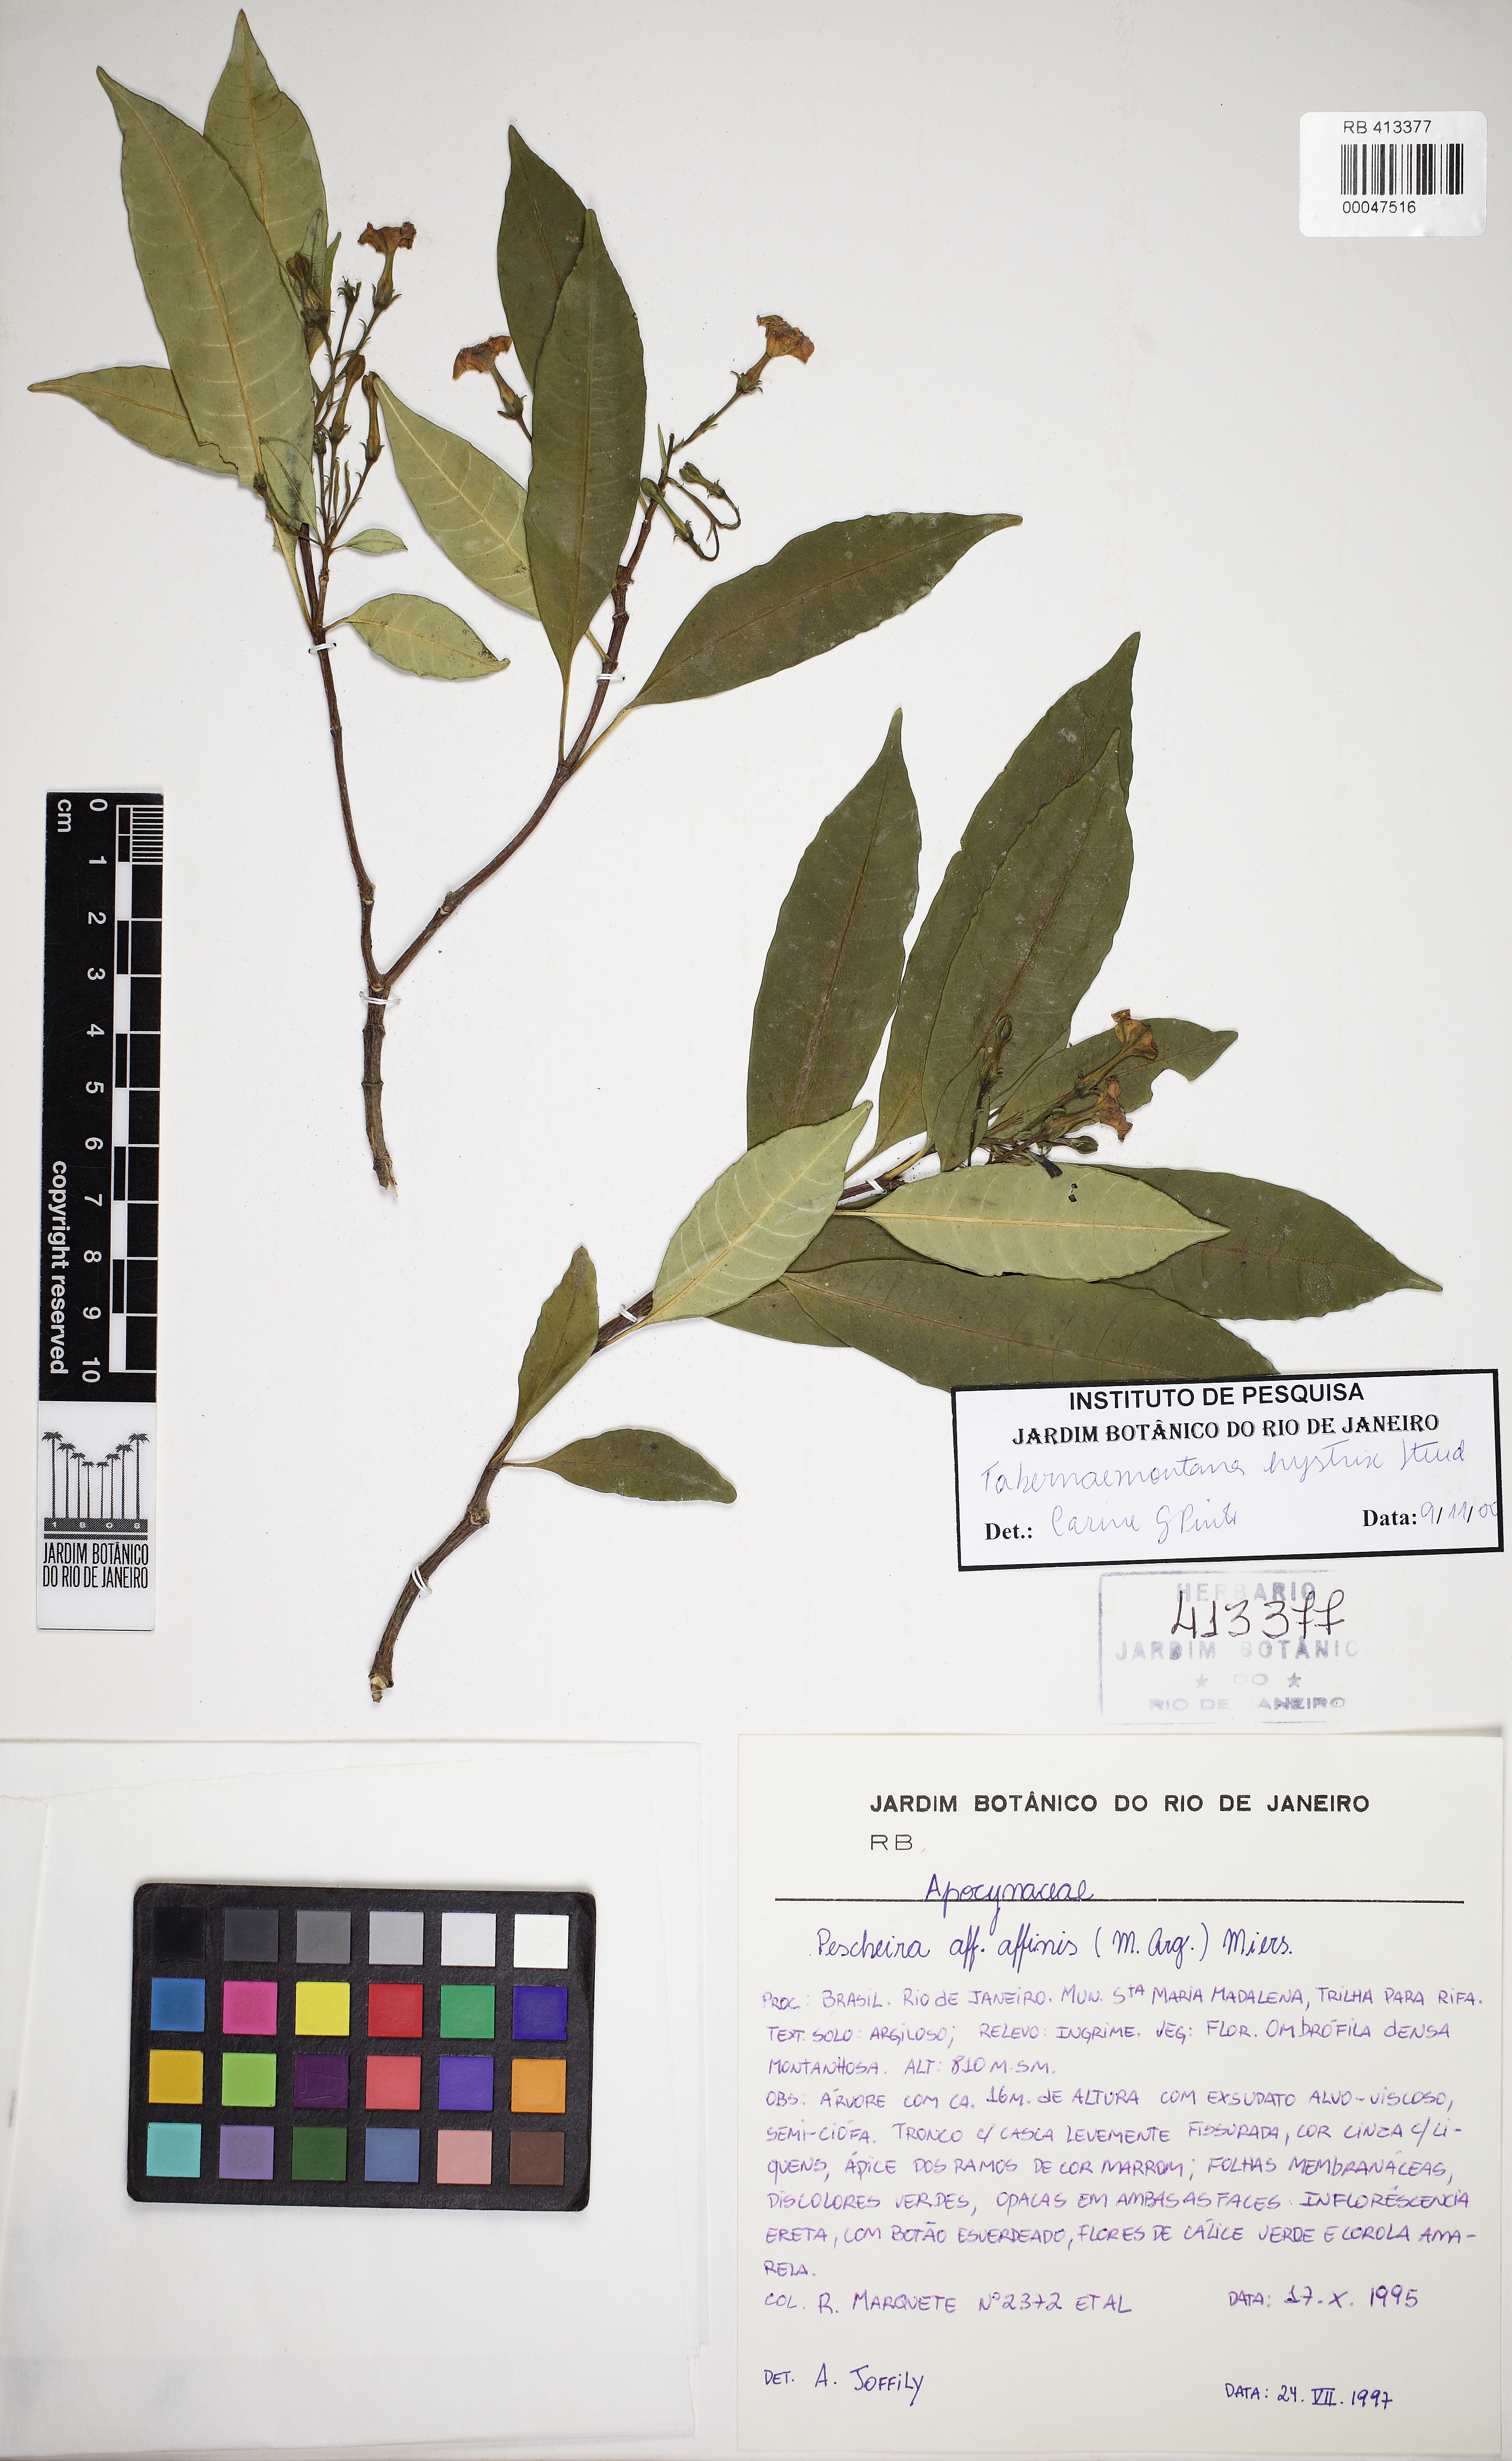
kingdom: Plantae
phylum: Tracheophyta
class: Magnoliopsida
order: Gentianales
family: Apocynaceae
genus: Tabernaemontana
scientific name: Tabernaemontana hystrix
